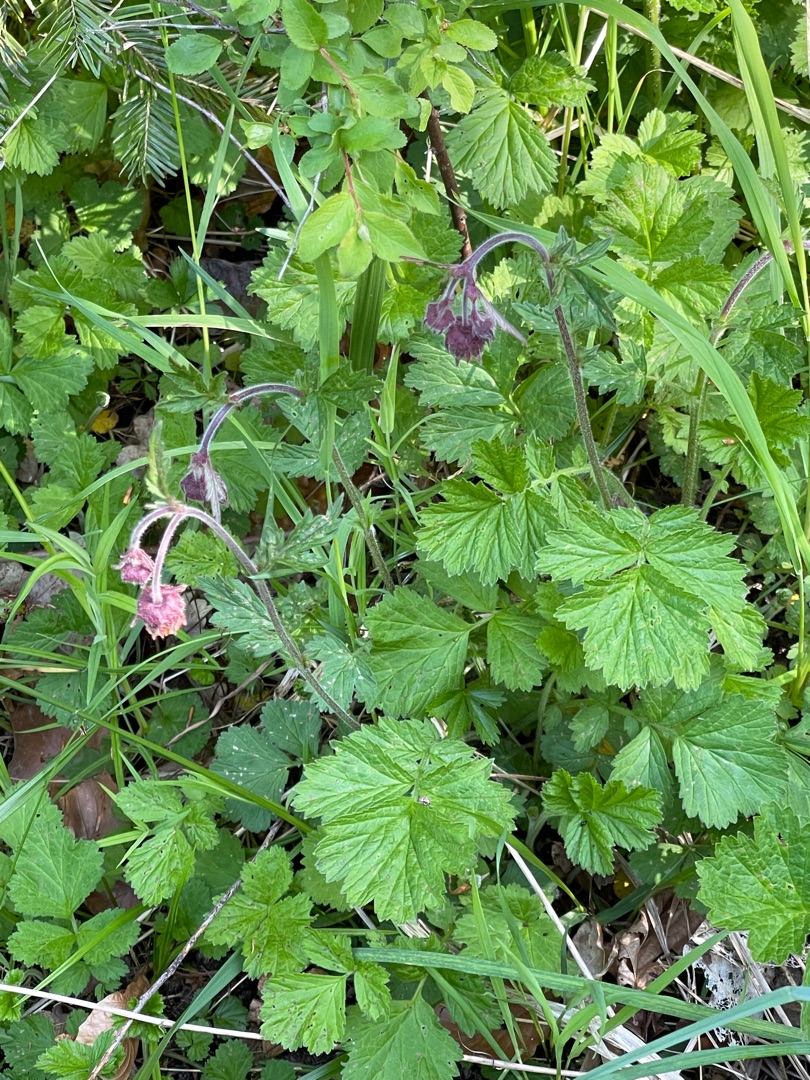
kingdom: Plantae
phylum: Tracheophyta
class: Magnoliopsida
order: Rosales
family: Rosaceae
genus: Geum
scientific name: Geum rivale
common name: Eng-nellikerod
